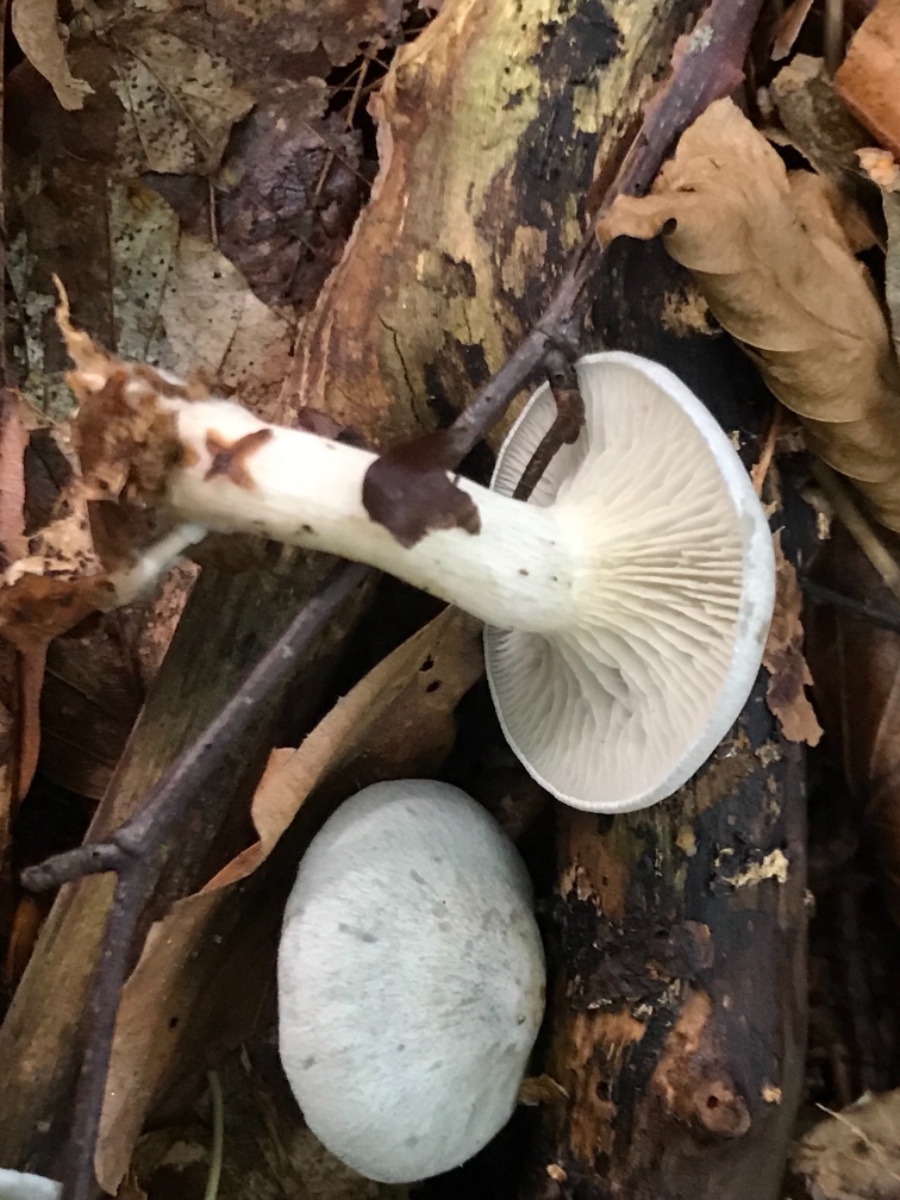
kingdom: Fungi
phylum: Basidiomycota
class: Agaricomycetes
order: Agaricales
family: Tricholomataceae
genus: Clitocybe
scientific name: Clitocybe odora
